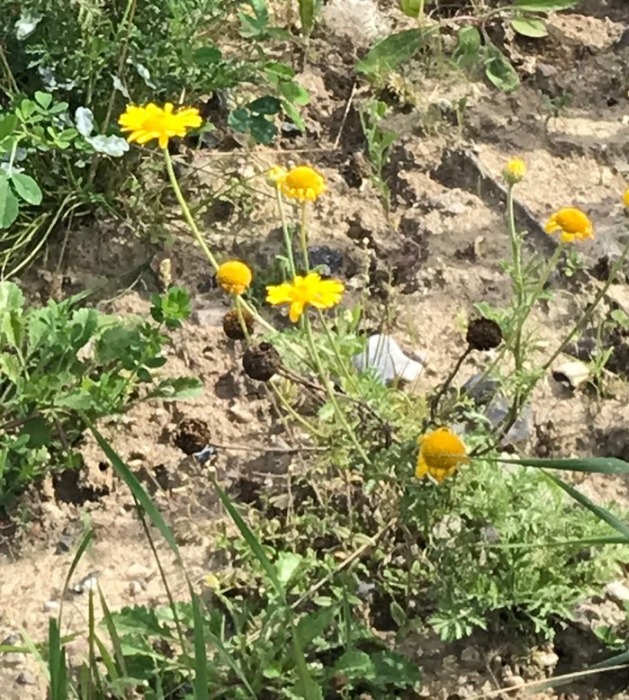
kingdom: Plantae
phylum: Tracheophyta
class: Magnoliopsida
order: Asterales
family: Asteraceae
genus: Cota
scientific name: Cota tinctoria
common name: Farve-gåseurt
